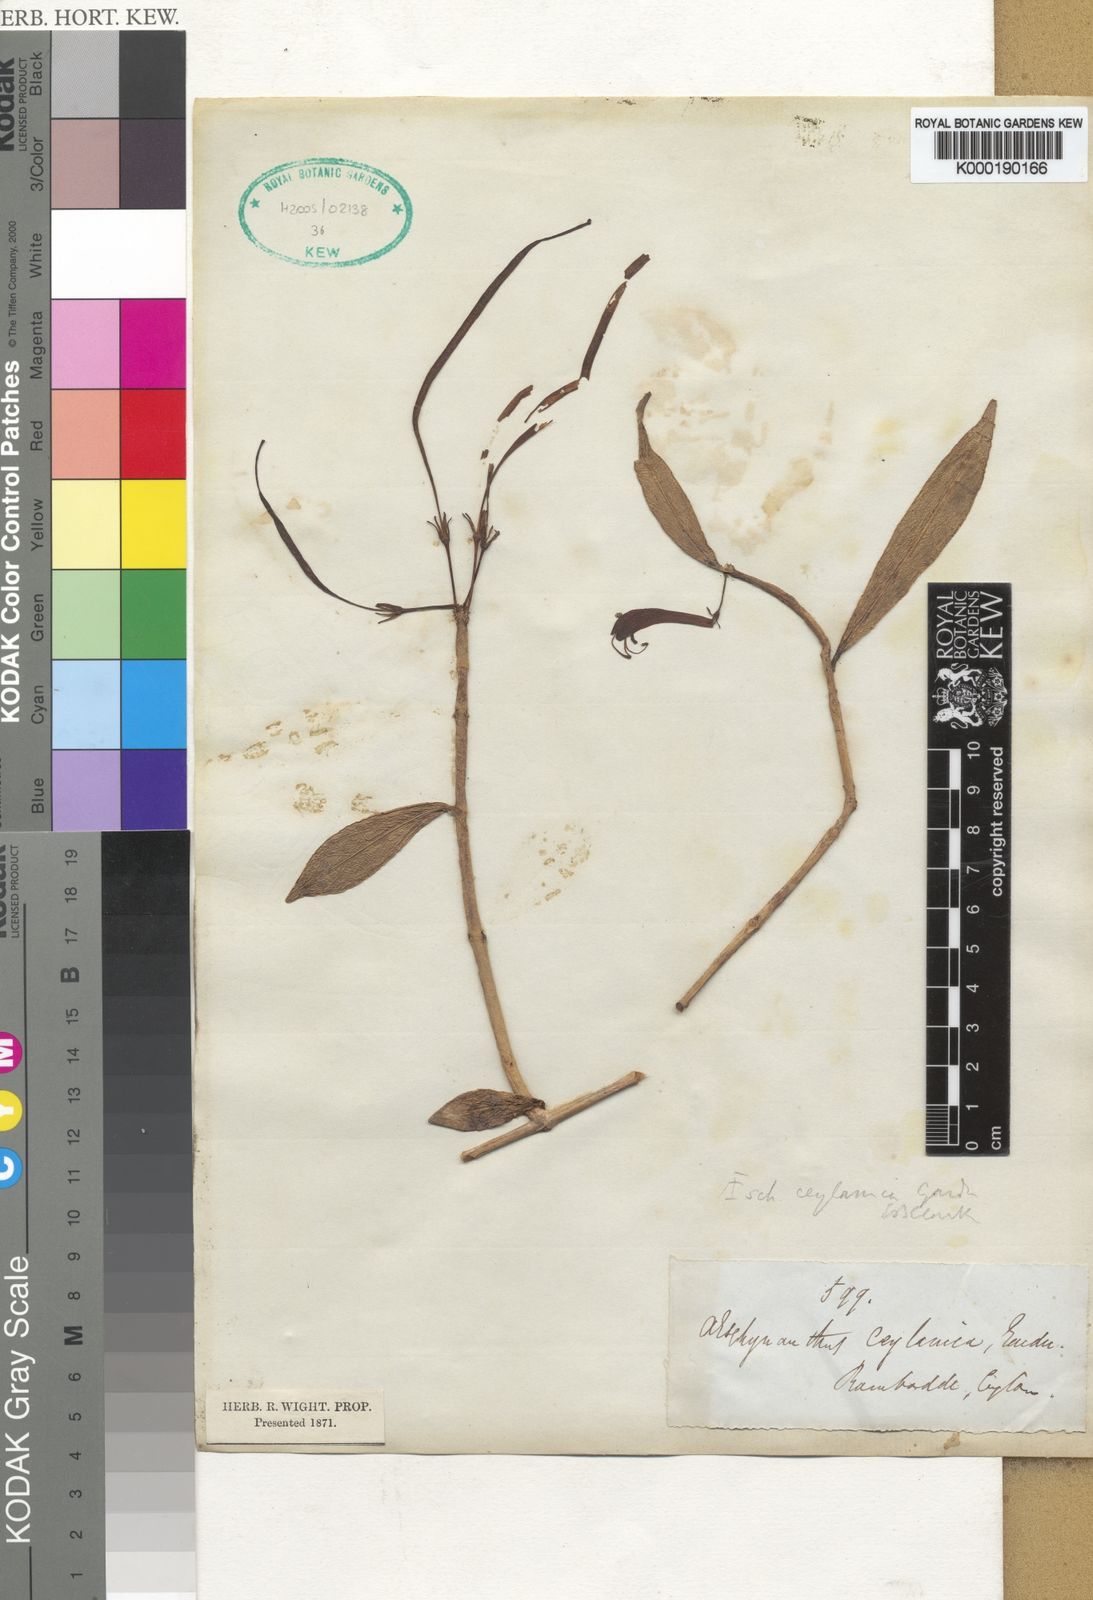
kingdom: Plantae
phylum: Tracheophyta
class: Magnoliopsida
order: Lamiales
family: Gesneriaceae
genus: Aeschynanthus
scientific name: Aeschynanthus ceylanicus
